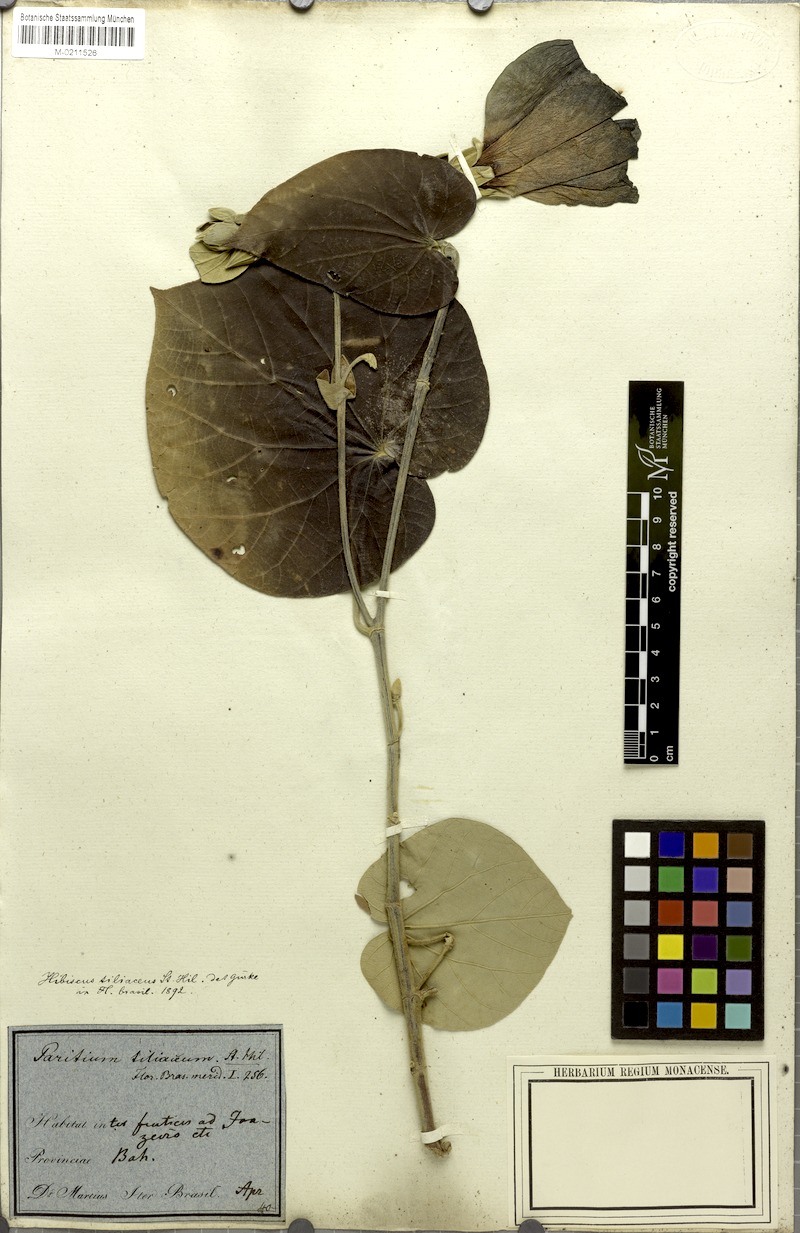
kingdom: Plantae
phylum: Tracheophyta
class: Magnoliopsida
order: Malvales
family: Malvaceae
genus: Talipariti
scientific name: Talipariti tiliaceum
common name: Sea hibiscus
